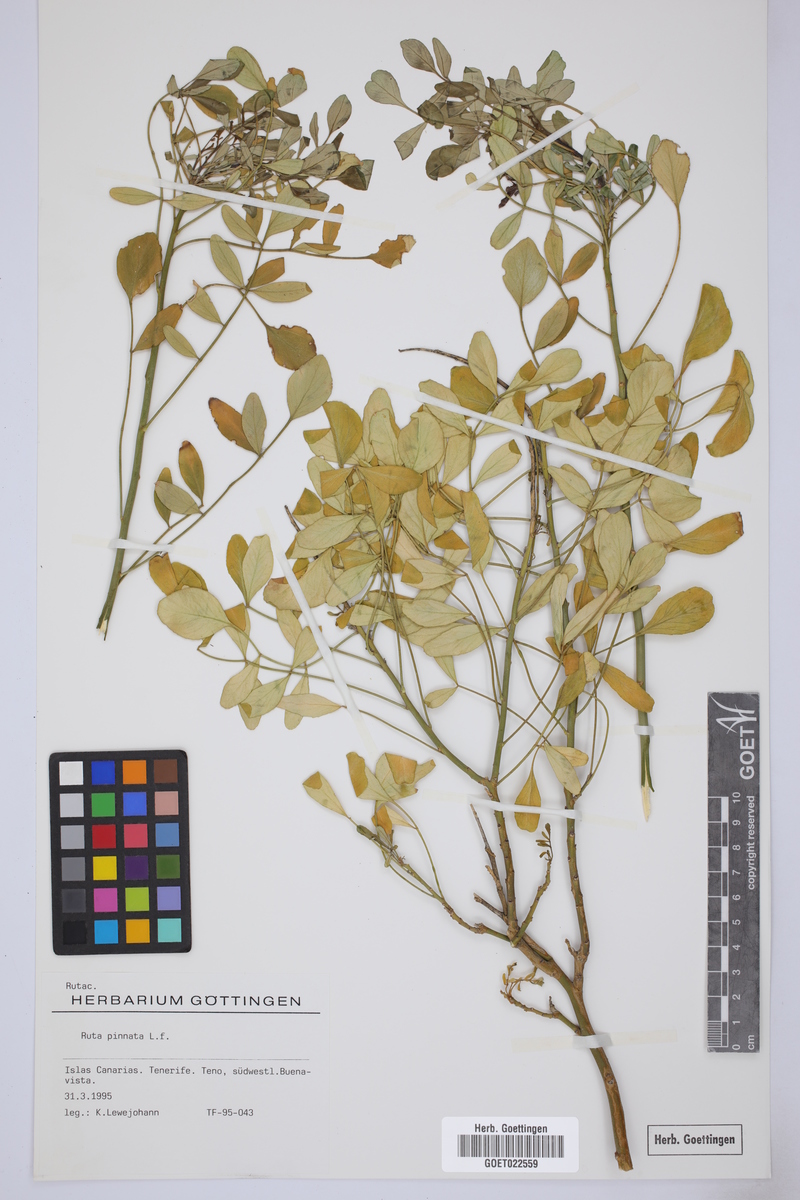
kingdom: Plantae
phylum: Tracheophyta
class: Magnoliopsida
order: Sapindales
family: Rutaceae
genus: Ruta
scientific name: Ruta pinnata
